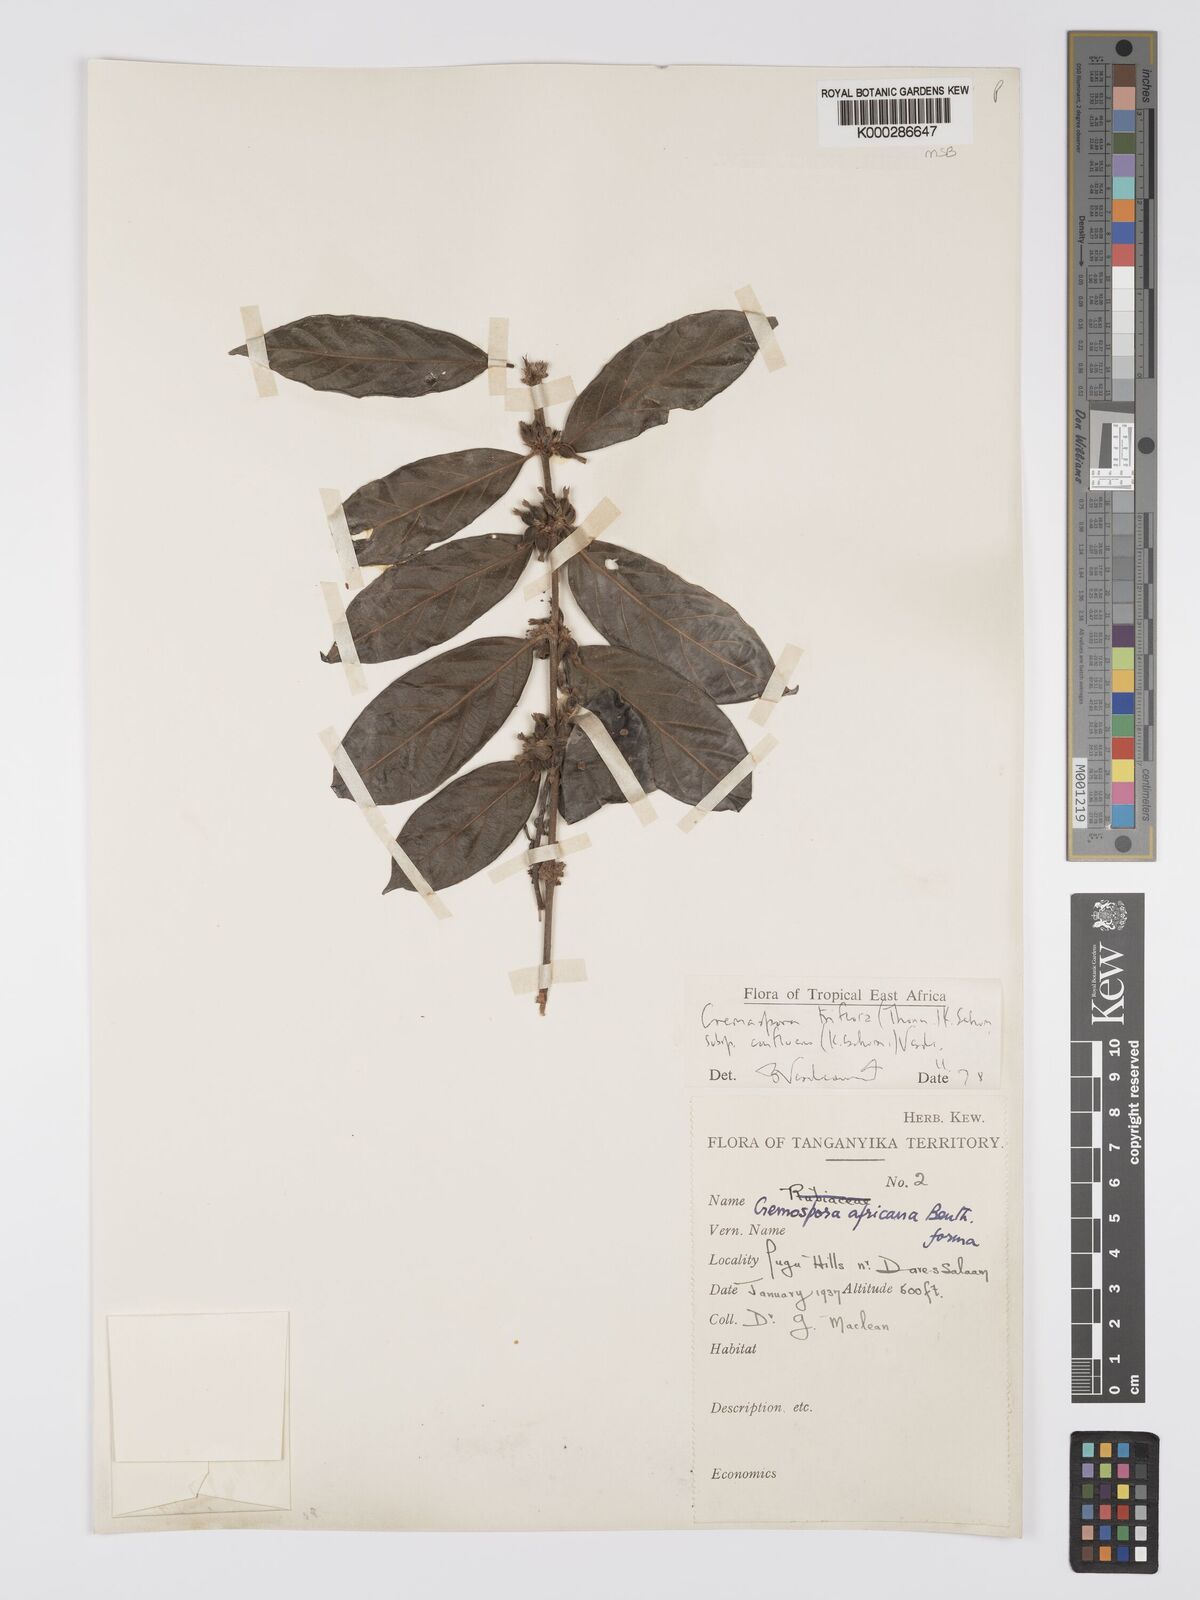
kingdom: Plantae
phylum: Tracheophyta
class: Magnoliopsida
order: Gentianales
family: Rubiaceae
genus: Cremaspora
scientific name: Cremaspora triflora
